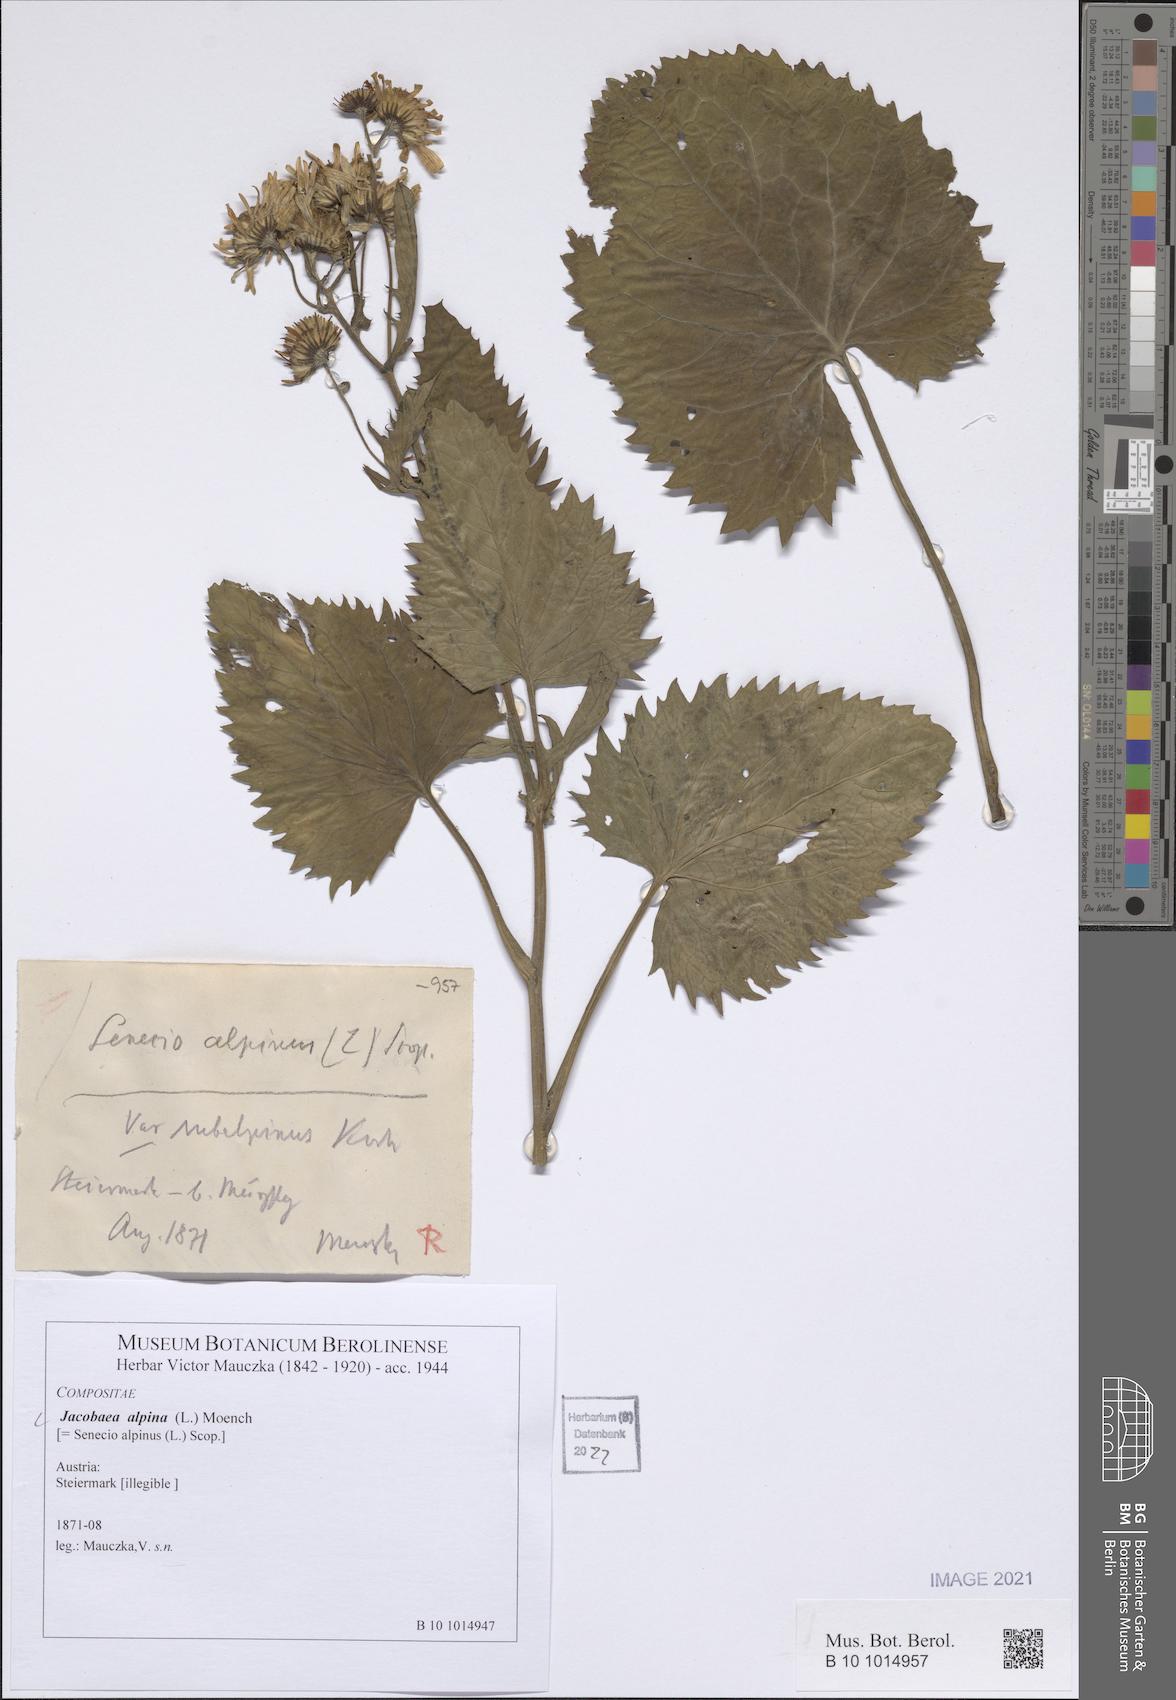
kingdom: Plantae
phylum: Tracheophyta
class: Magnoliopsida
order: Asterales
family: Asteraceae
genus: Jacobaea
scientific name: Jacobaea alpina
